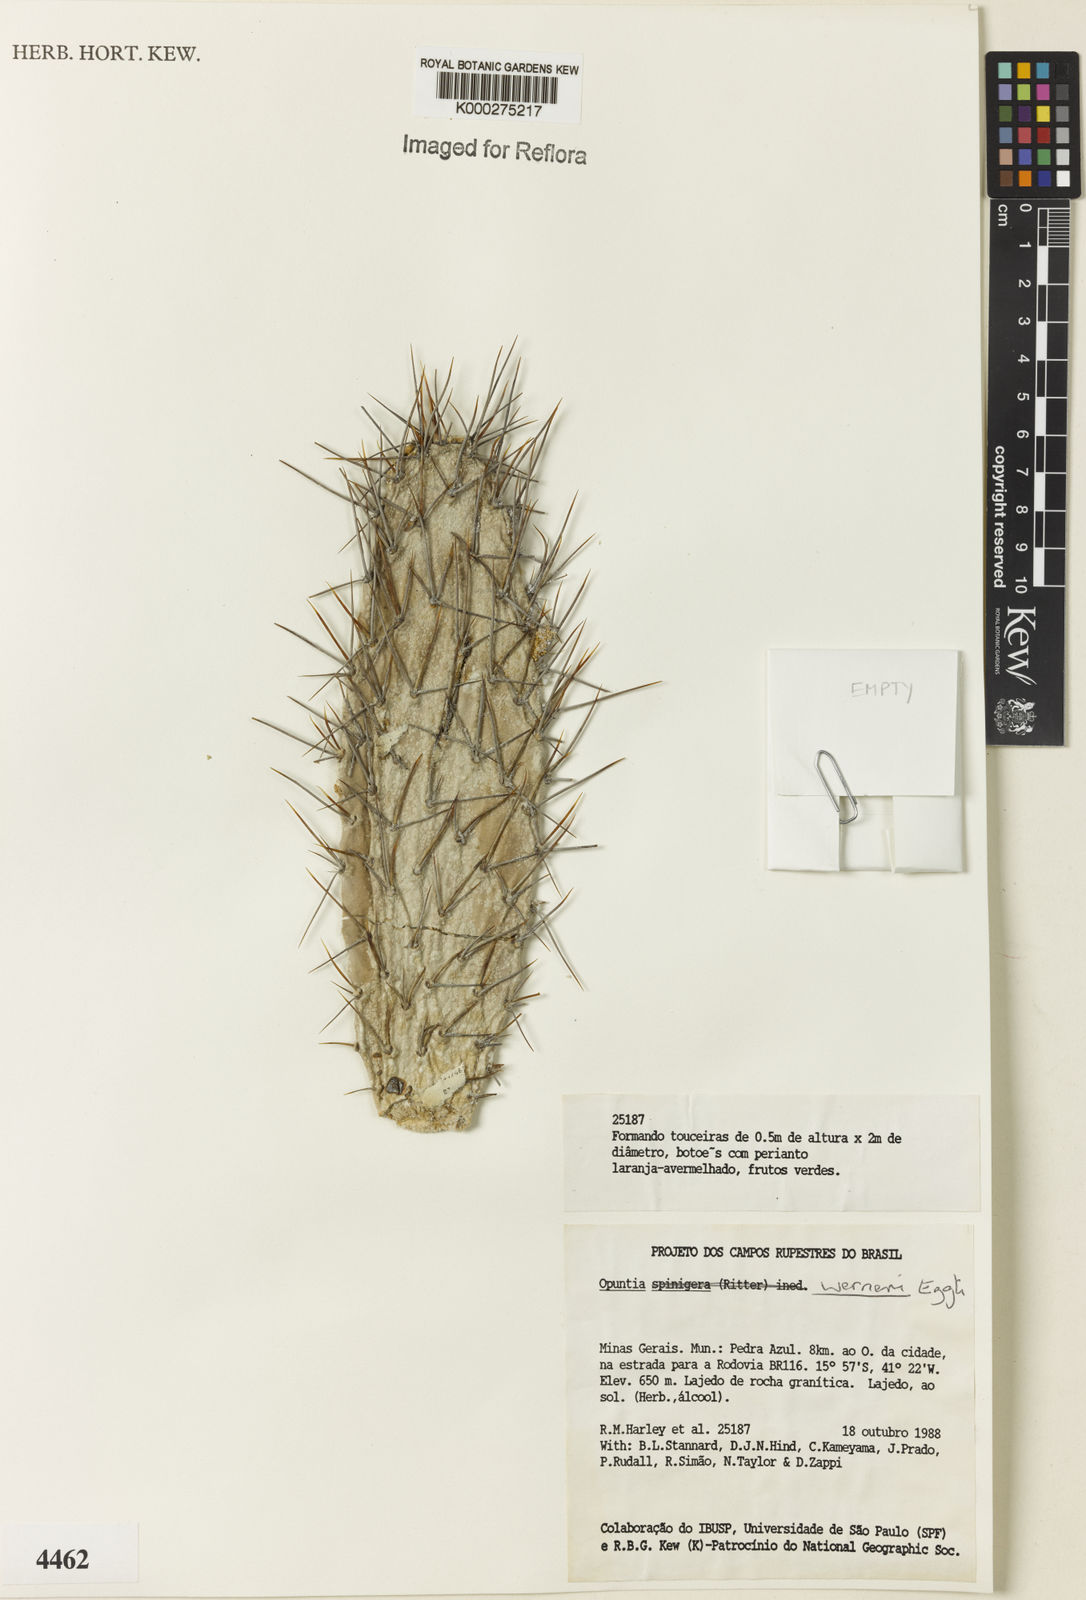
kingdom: Plantae
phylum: Tracheophyta
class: Magnoliopsida
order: Caryophyllales
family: Cactaceae
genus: Tacinga
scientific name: Tacinga werneri
